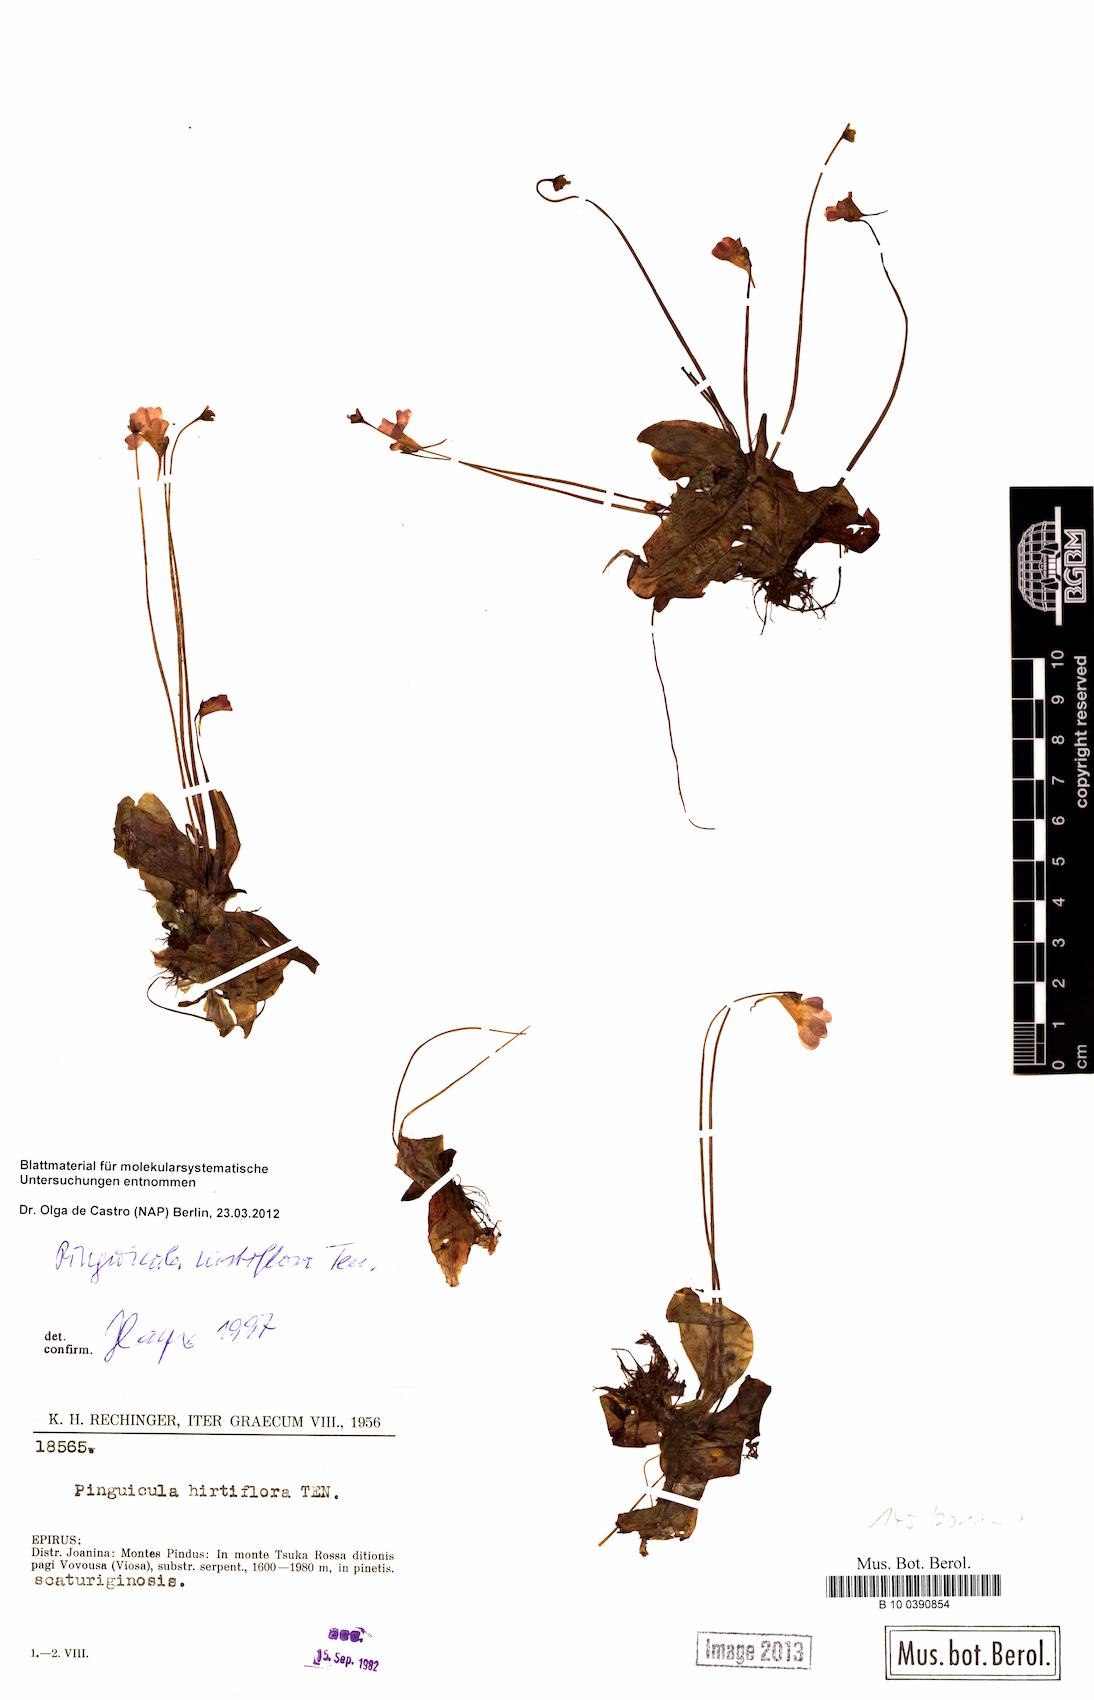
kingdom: Plantae
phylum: Tracheophyta
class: Magnoliopsida
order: Lamiales
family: Lentibulariaceae
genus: Pinguicula
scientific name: Pinguicula crystallina
